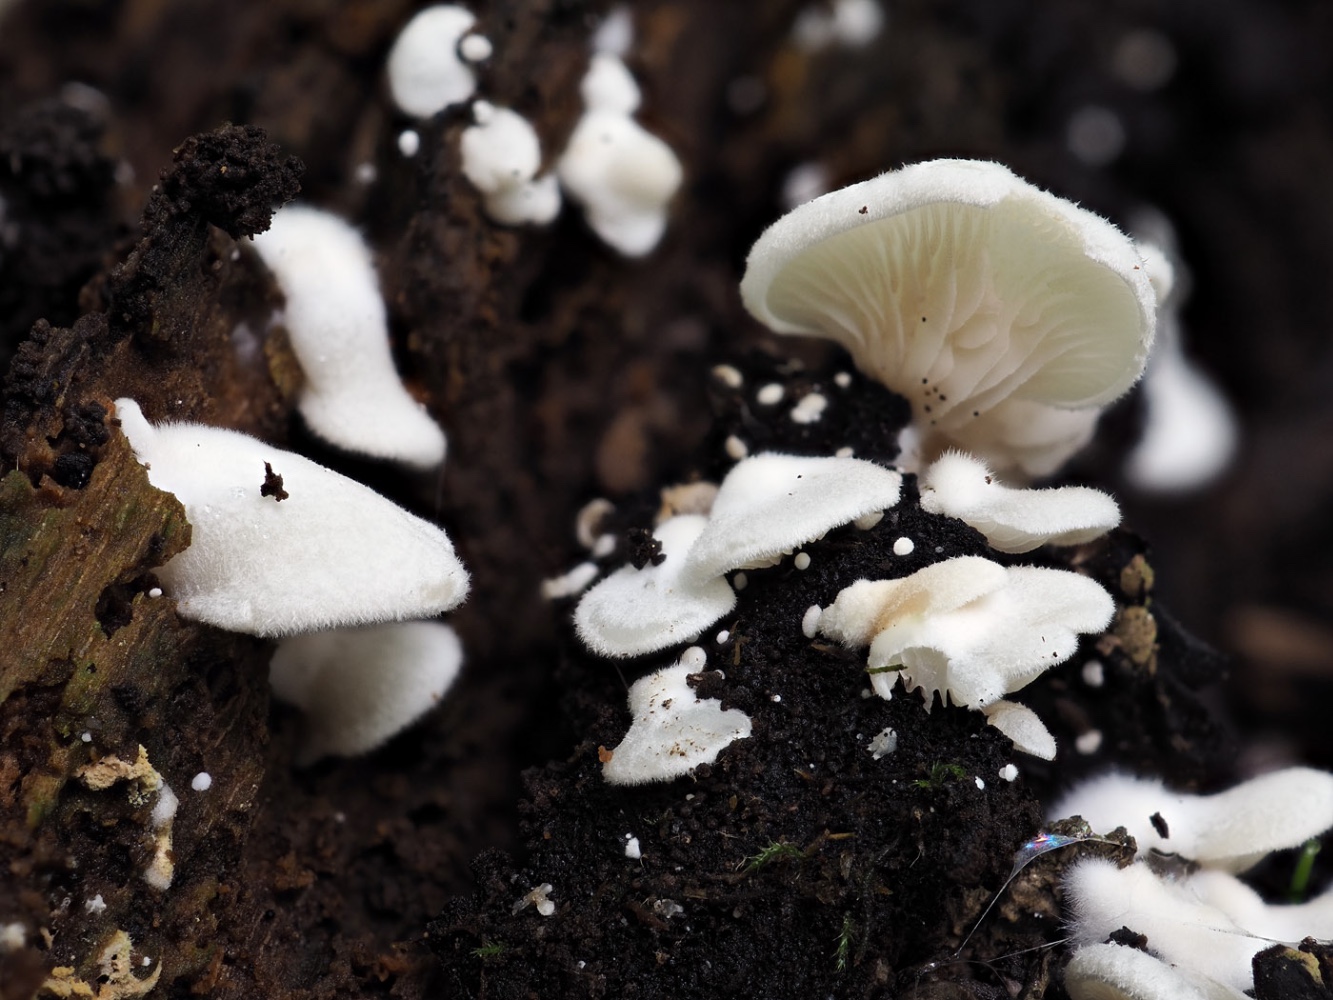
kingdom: Fungi
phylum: Basidiomycota
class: Agaricomycetes
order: Agaricales
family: Crepidotaceae
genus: Crepidotus
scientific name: Crepidotus autochthonus
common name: skæv muslingesvamp
